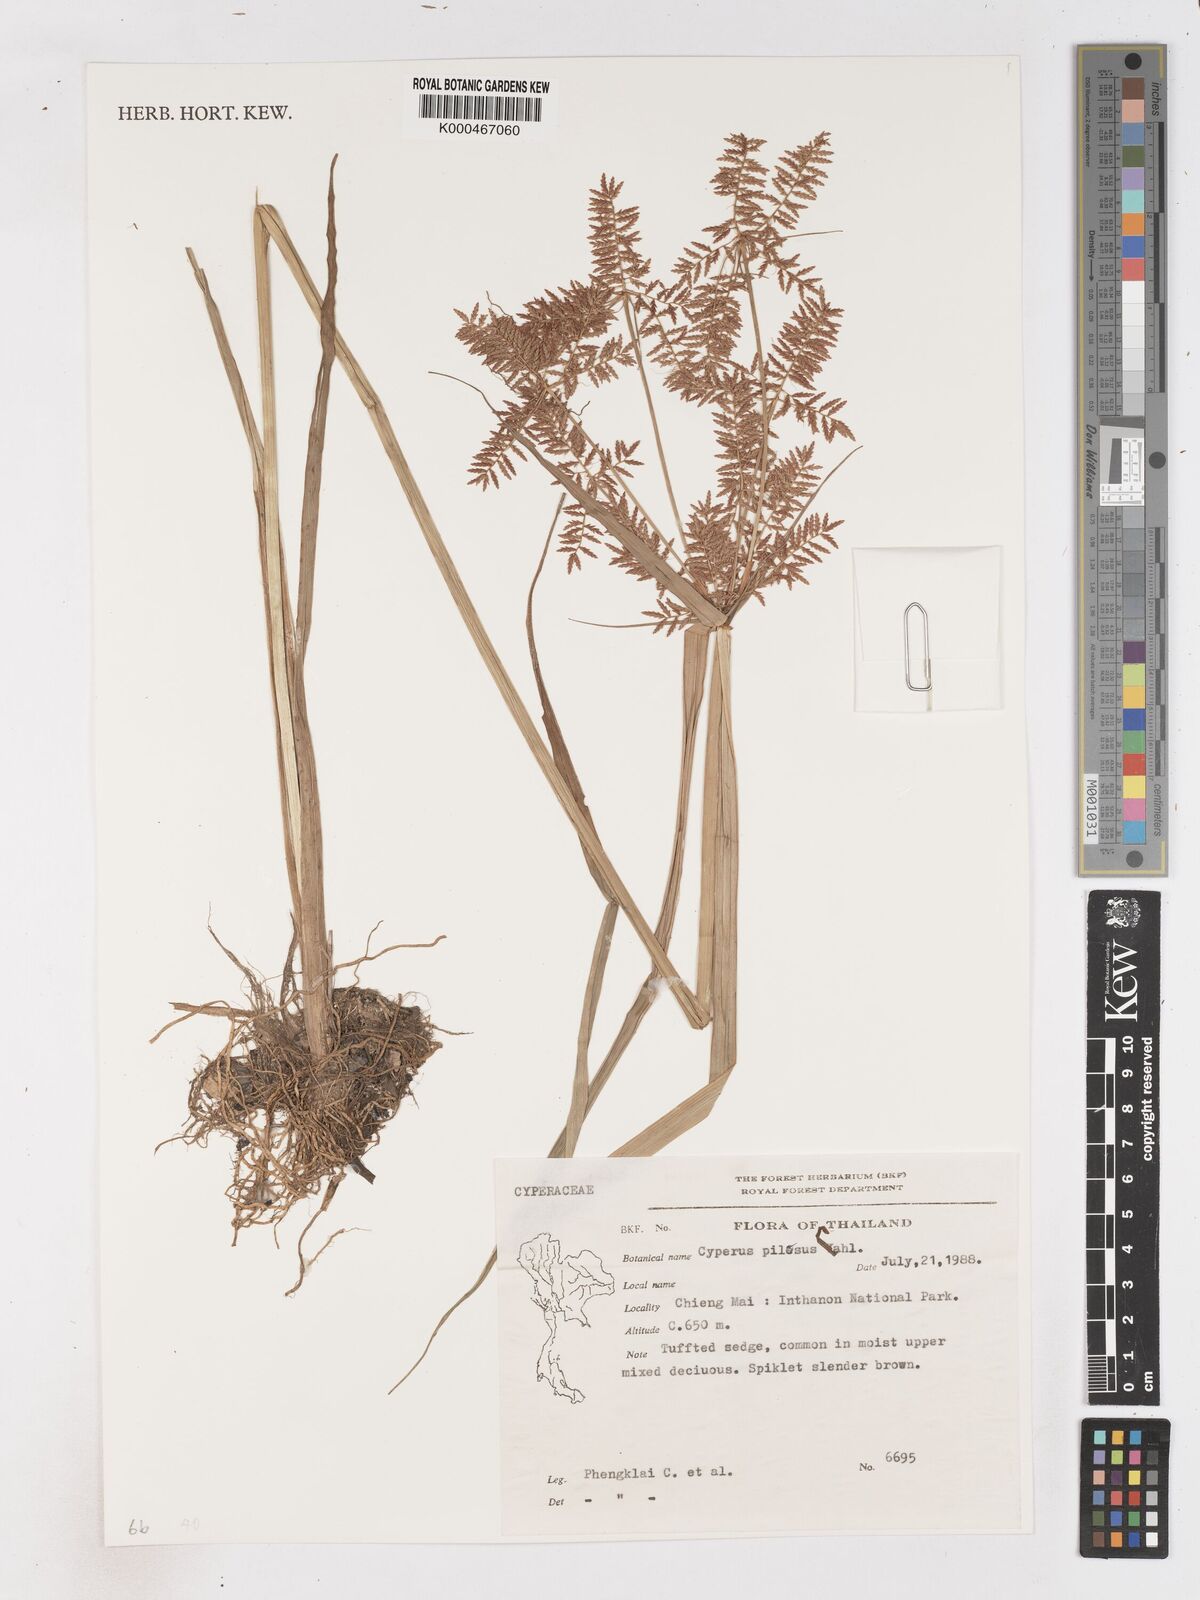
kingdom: Plantae
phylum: Tracheophyta
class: Liliopsida
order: Poales
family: Cyperaceae
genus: Cyperus
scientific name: Cyperus pilosus
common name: Fuzzy flatsedge
